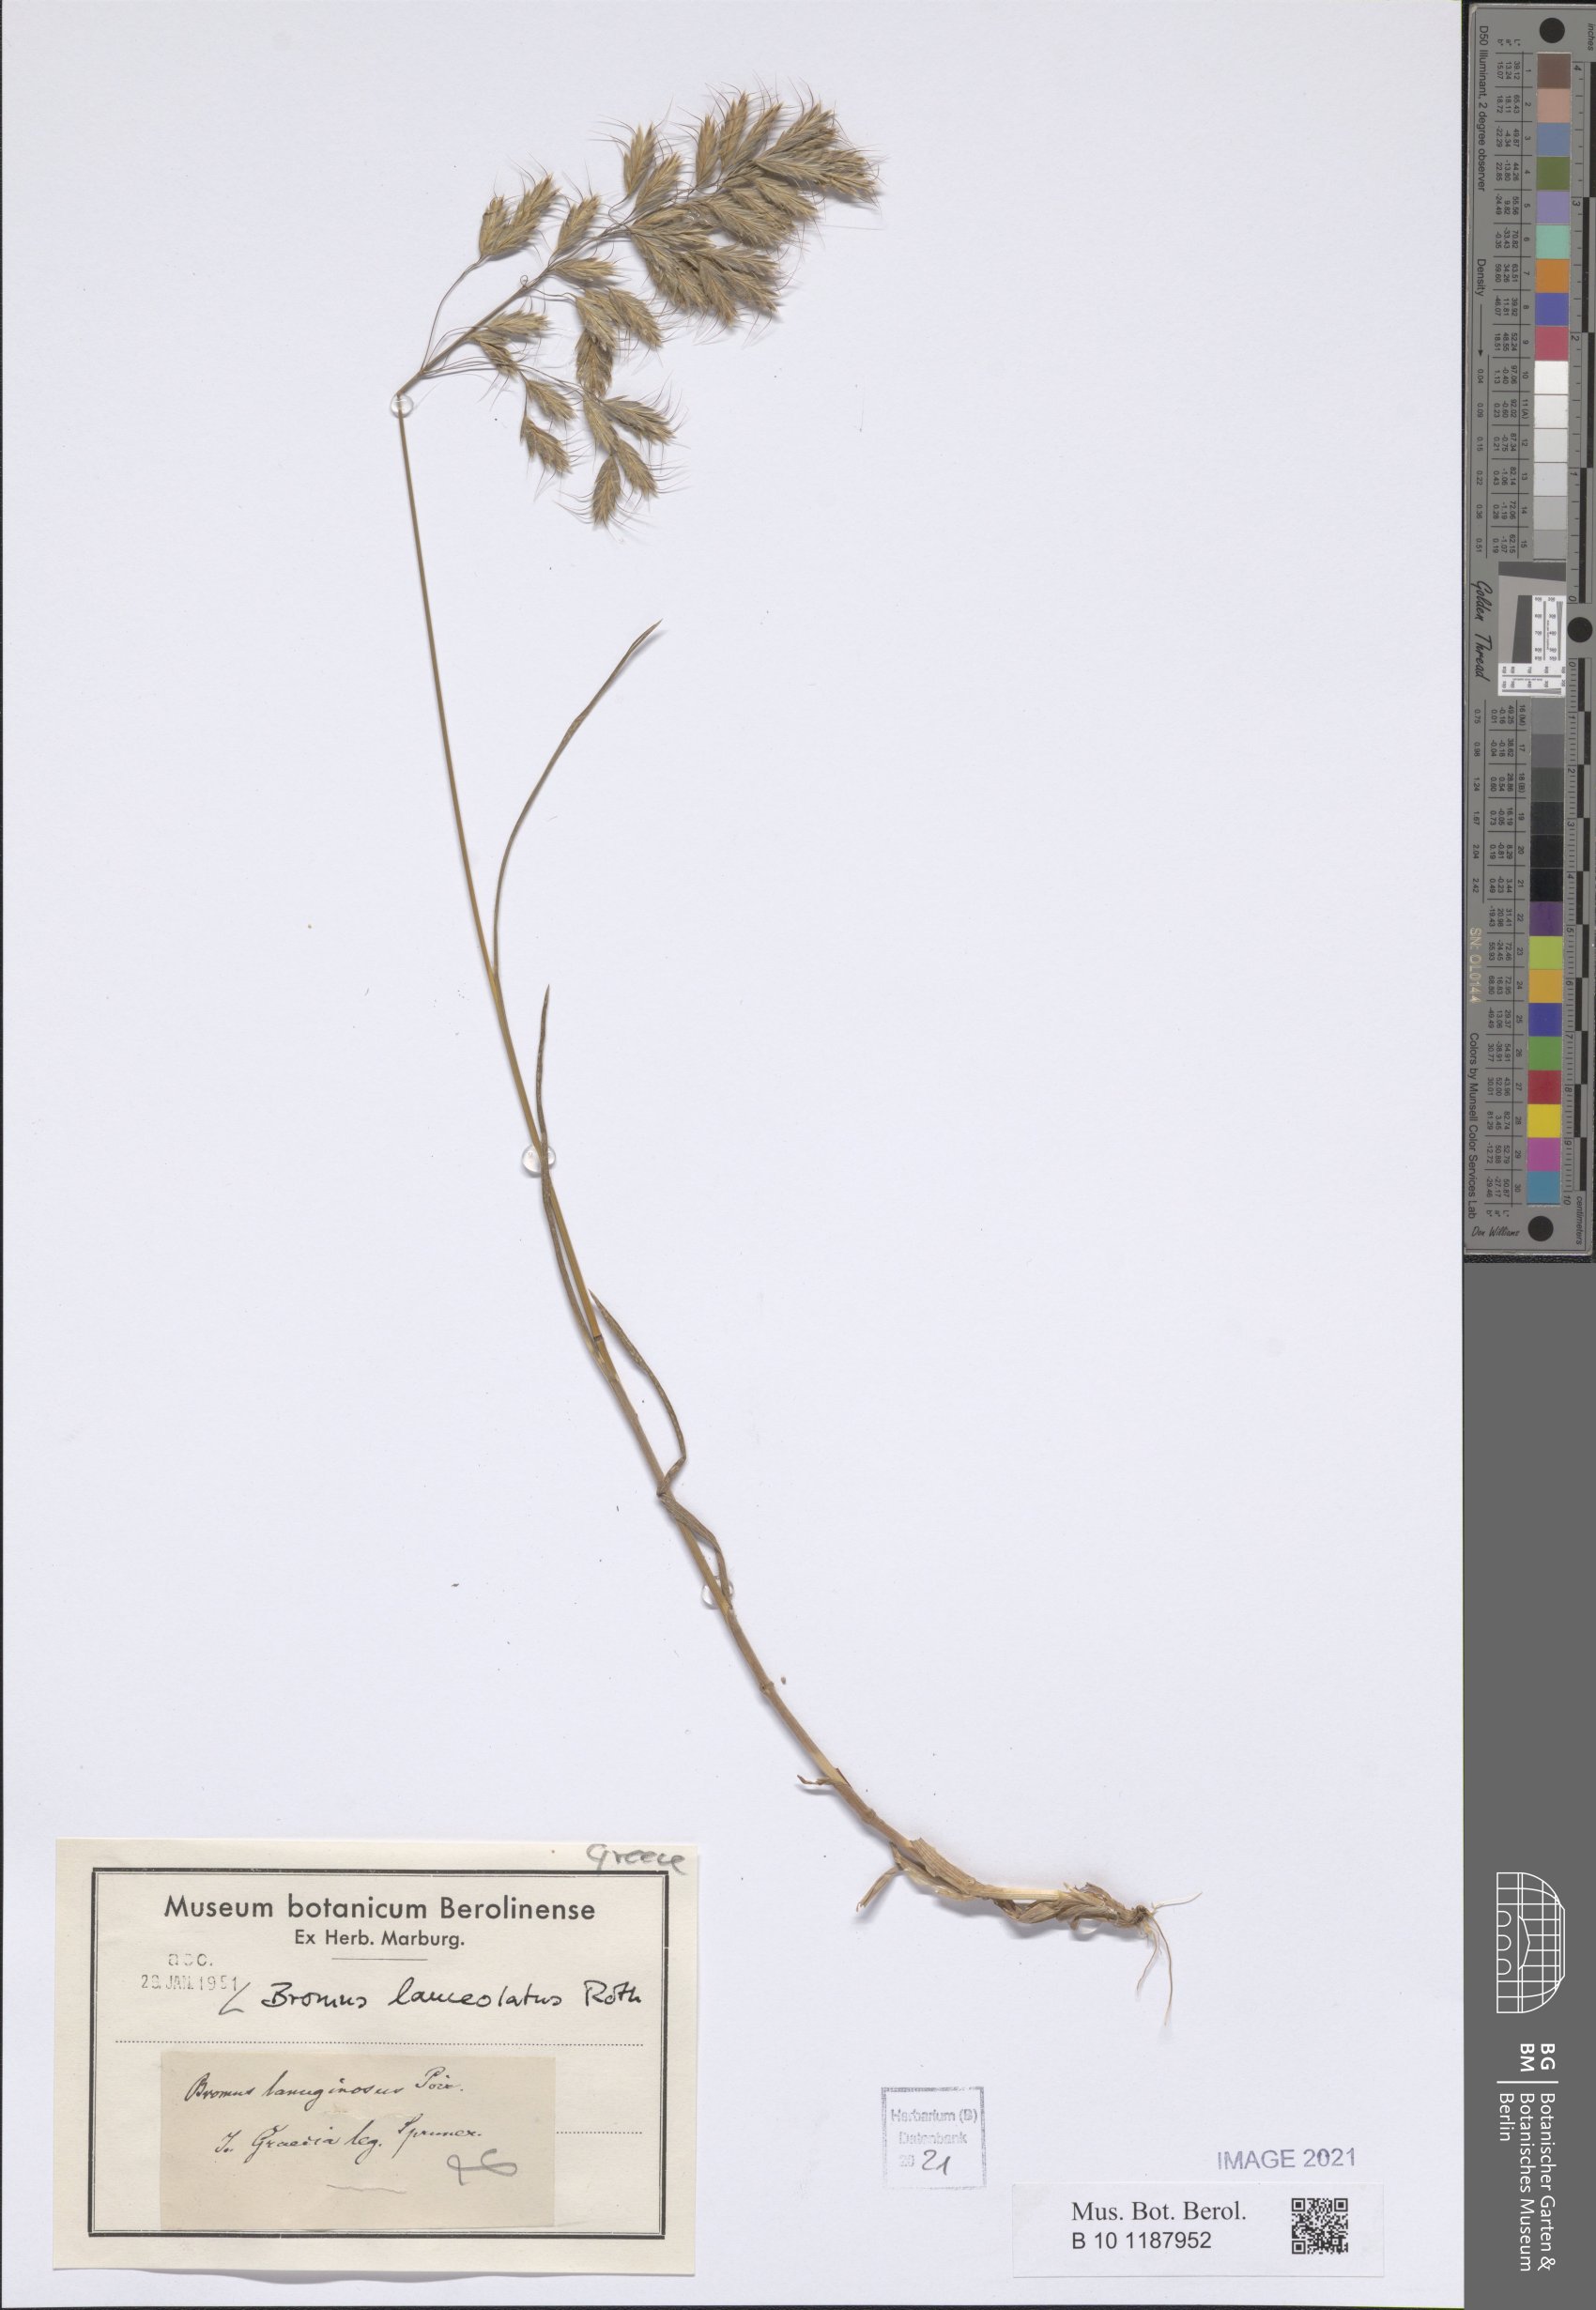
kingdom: Plantae
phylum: Tracheophyta
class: Liliopsida
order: Poales
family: Poaceae
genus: Bromus
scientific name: Bromus lanceolatus
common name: Mediterranean brome
